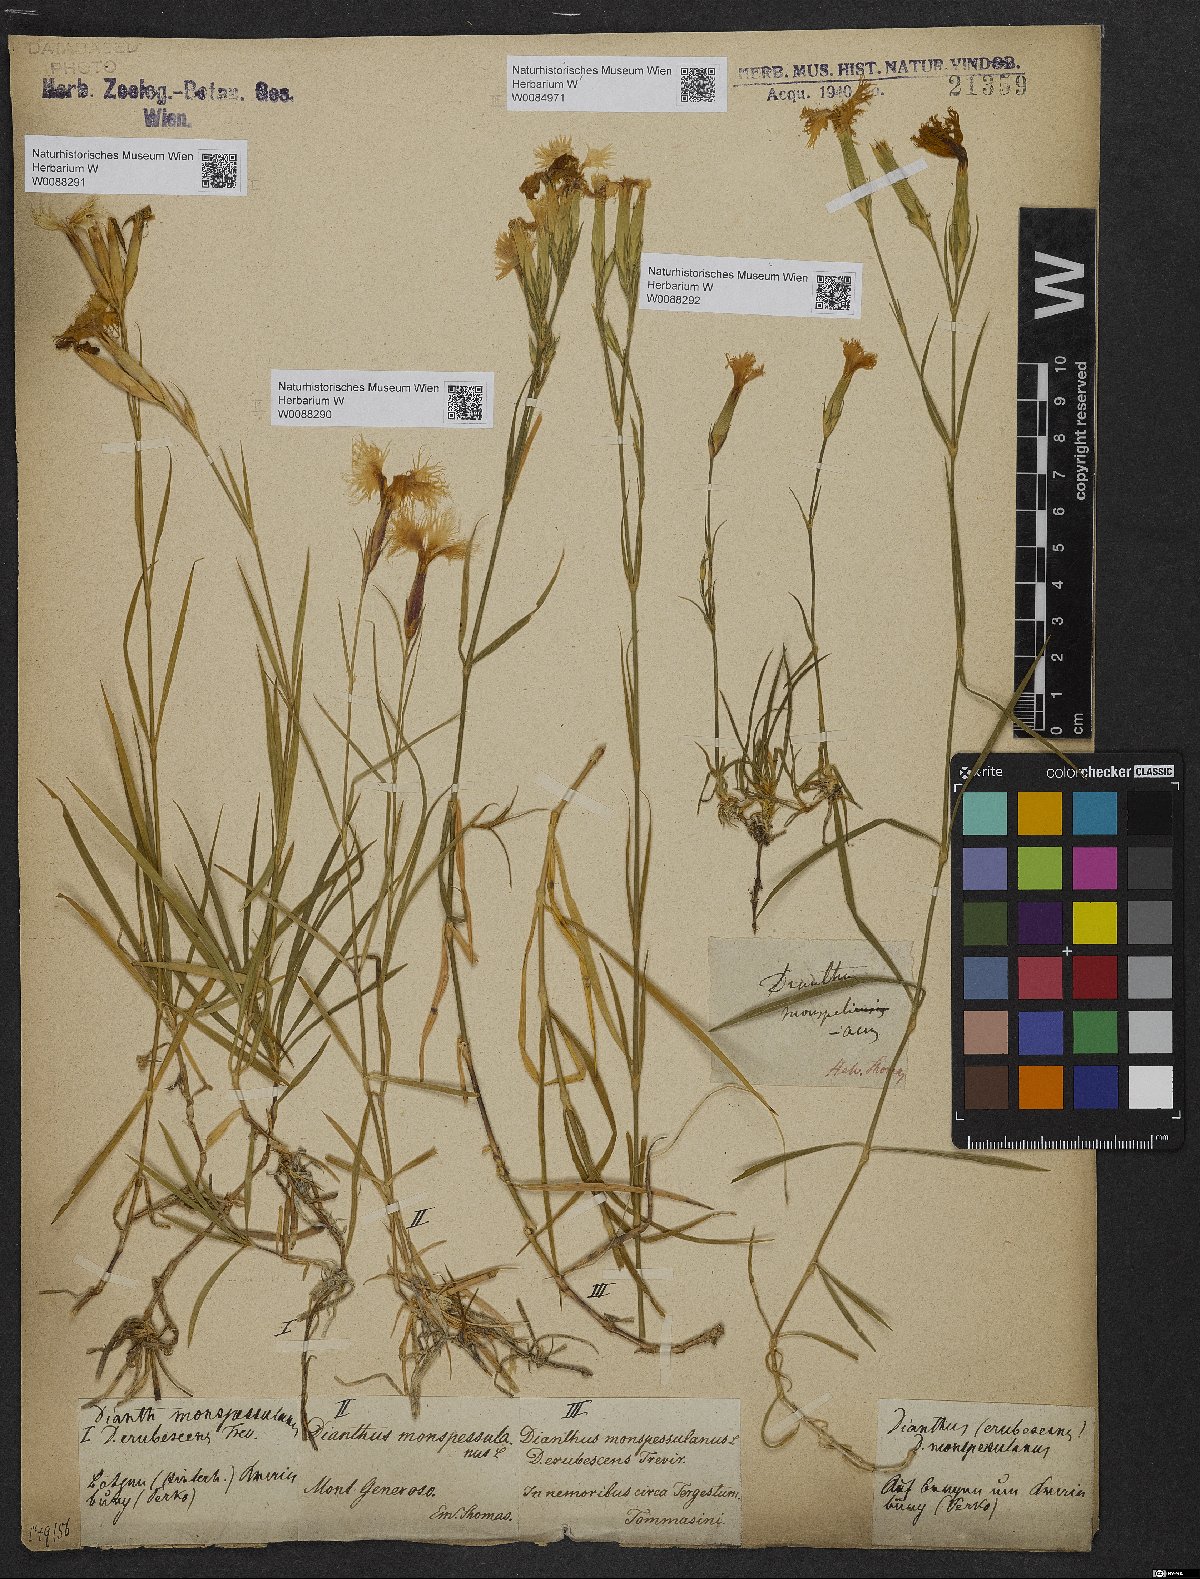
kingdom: Plantae
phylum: Tracheophyta
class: Magnoliopsida
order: Caryophyllales
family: Caryophyllaceae
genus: Dianthus
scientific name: Dianthus hyssopifolius
